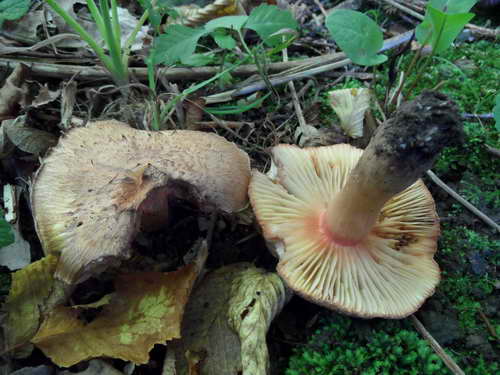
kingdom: Fungi
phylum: Basidiomycota
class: Agaricomycetes
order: Agaricales
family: Inocybaceae
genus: Inosperma
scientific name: Inosperma bongardii
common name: Bongards trævlhat
